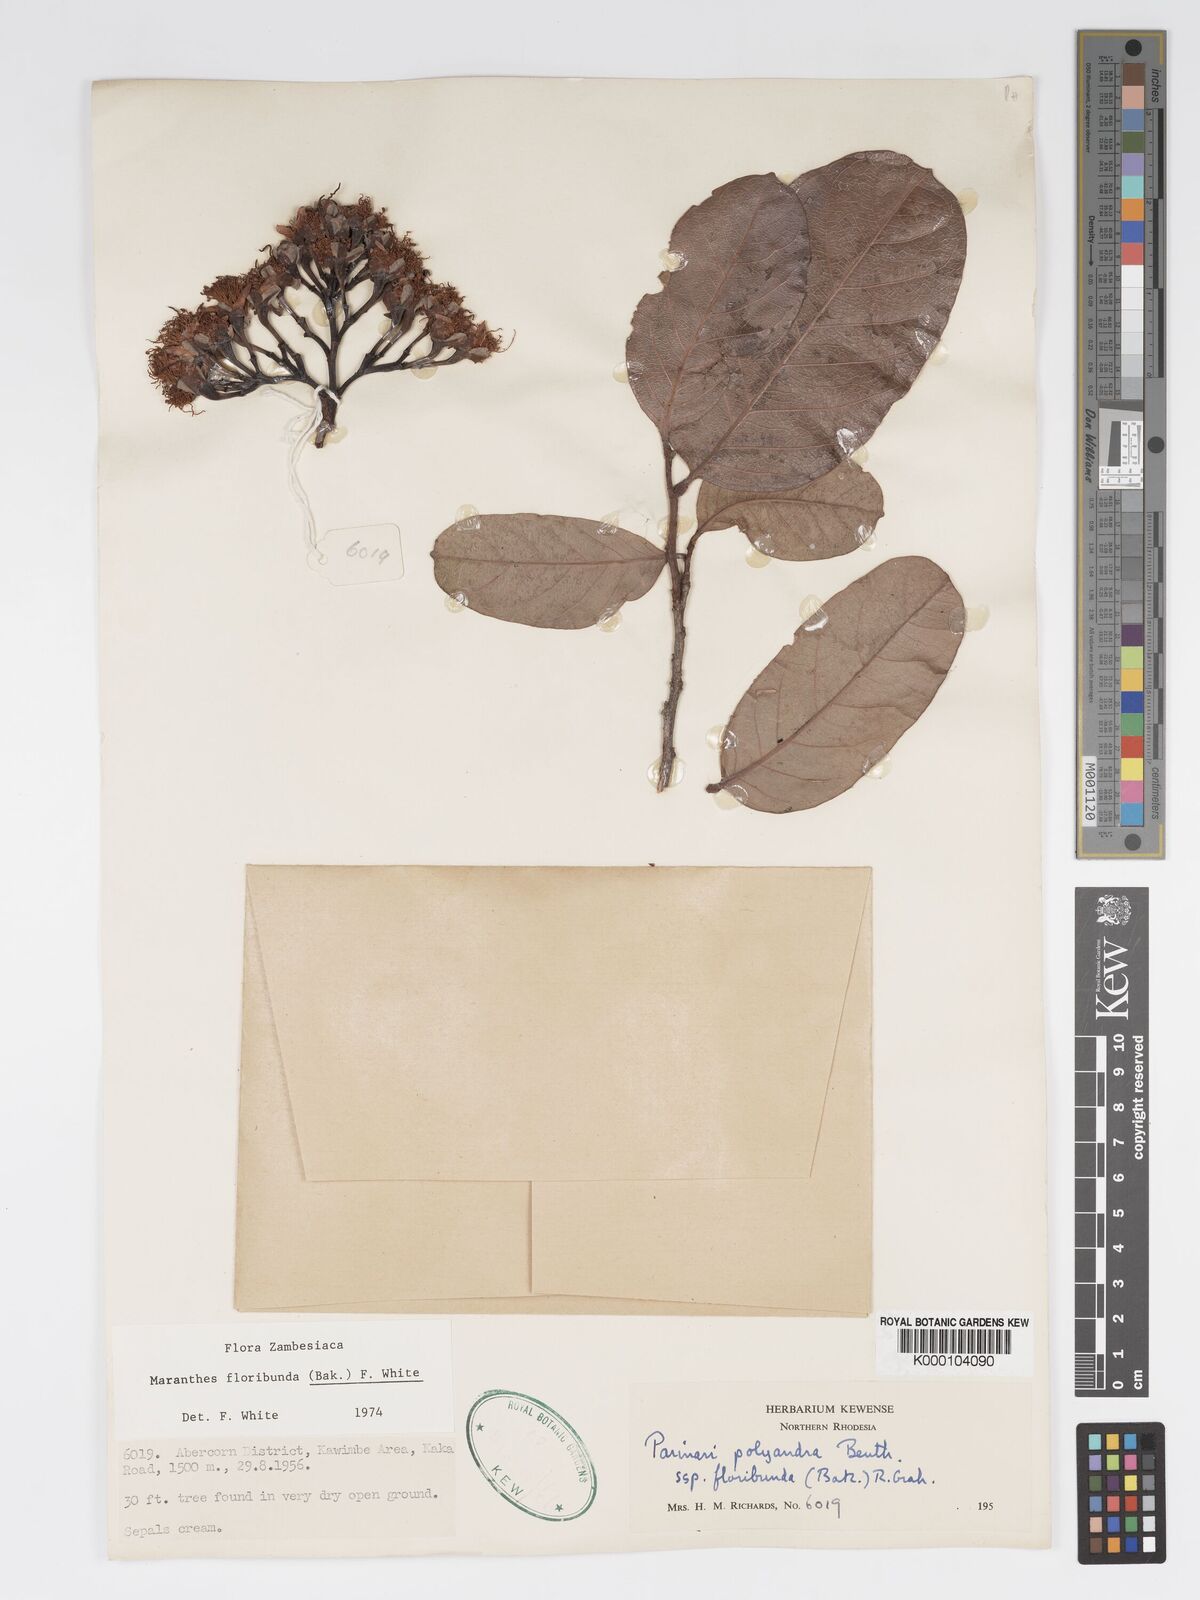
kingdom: Plantae
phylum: Tracheophyta
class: Magnoliopsida
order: Malpighiales
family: Chrysobalanaceae
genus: Maranthes
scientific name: Maranthes floribunda
